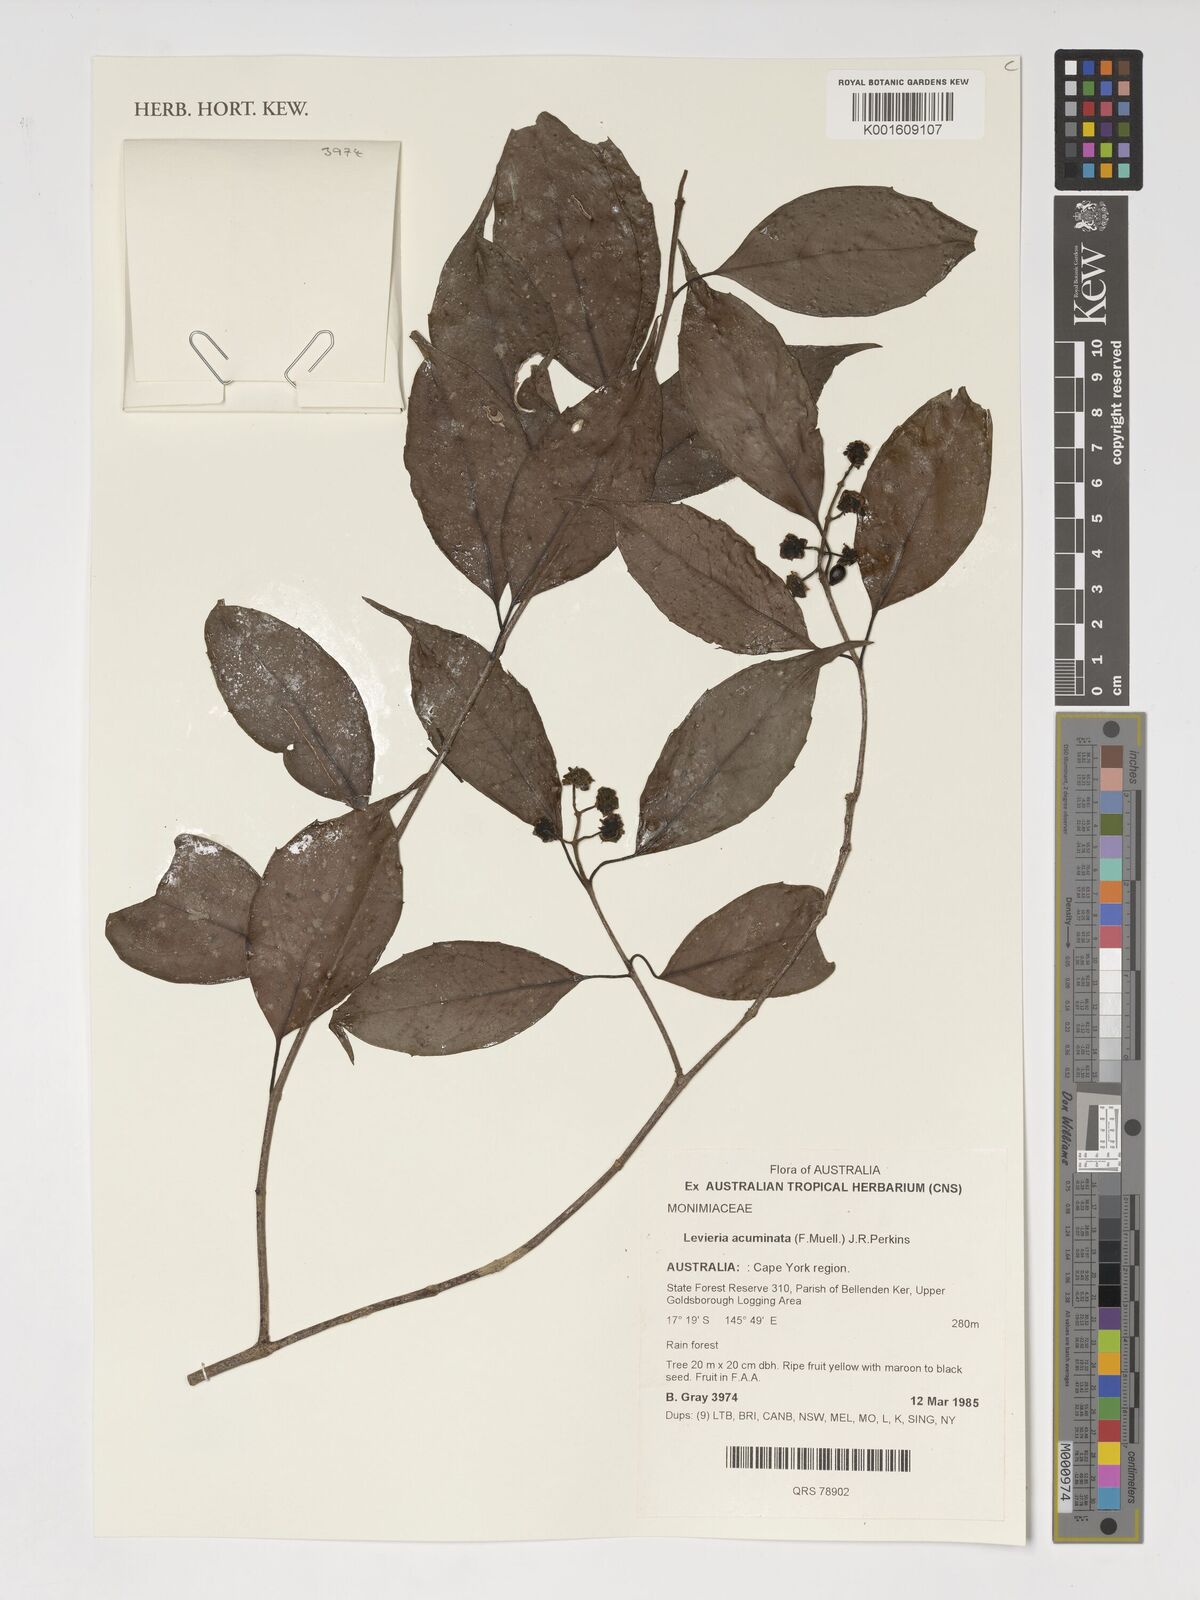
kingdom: Plantae
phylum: Tracheophyta
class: Magnoliopsida
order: Laurales
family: Monimiaceae
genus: Levieria
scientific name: Levieria acuminata
